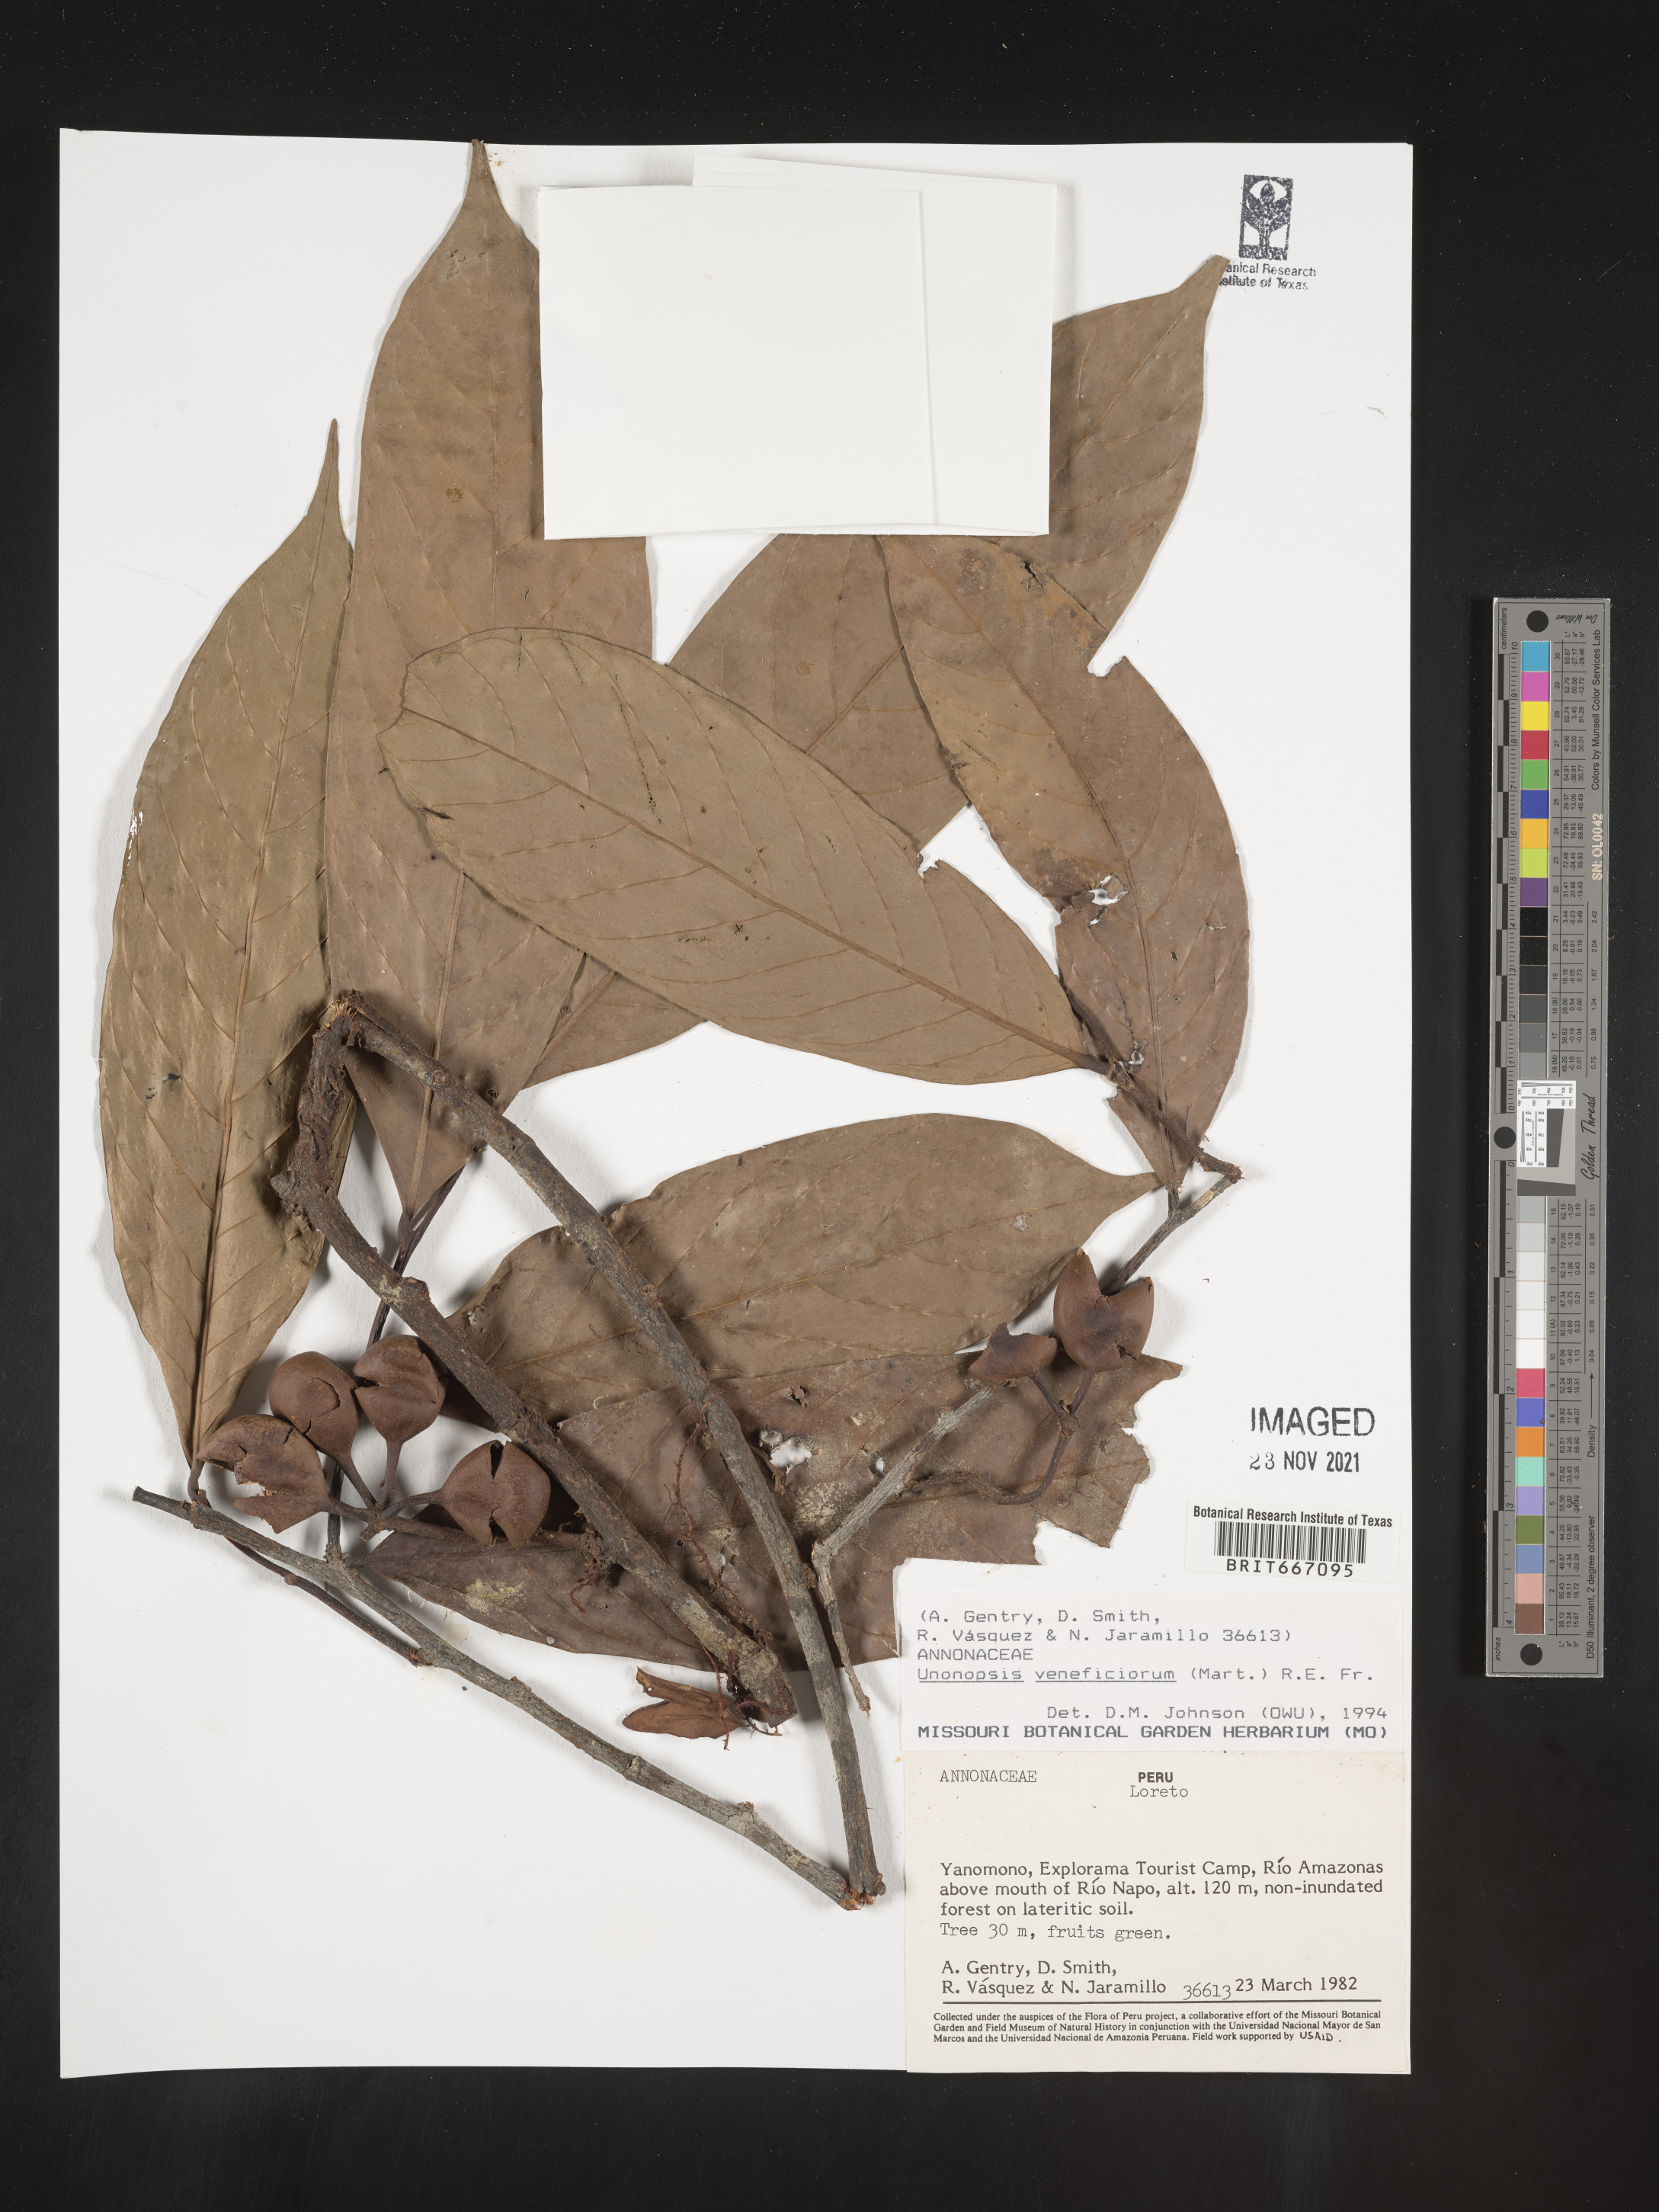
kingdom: Plantae
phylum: Tracheophyta
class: Magnoliopsida
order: Magnoliales
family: Annonaceae
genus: Unonopsis
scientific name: Unonopsis
